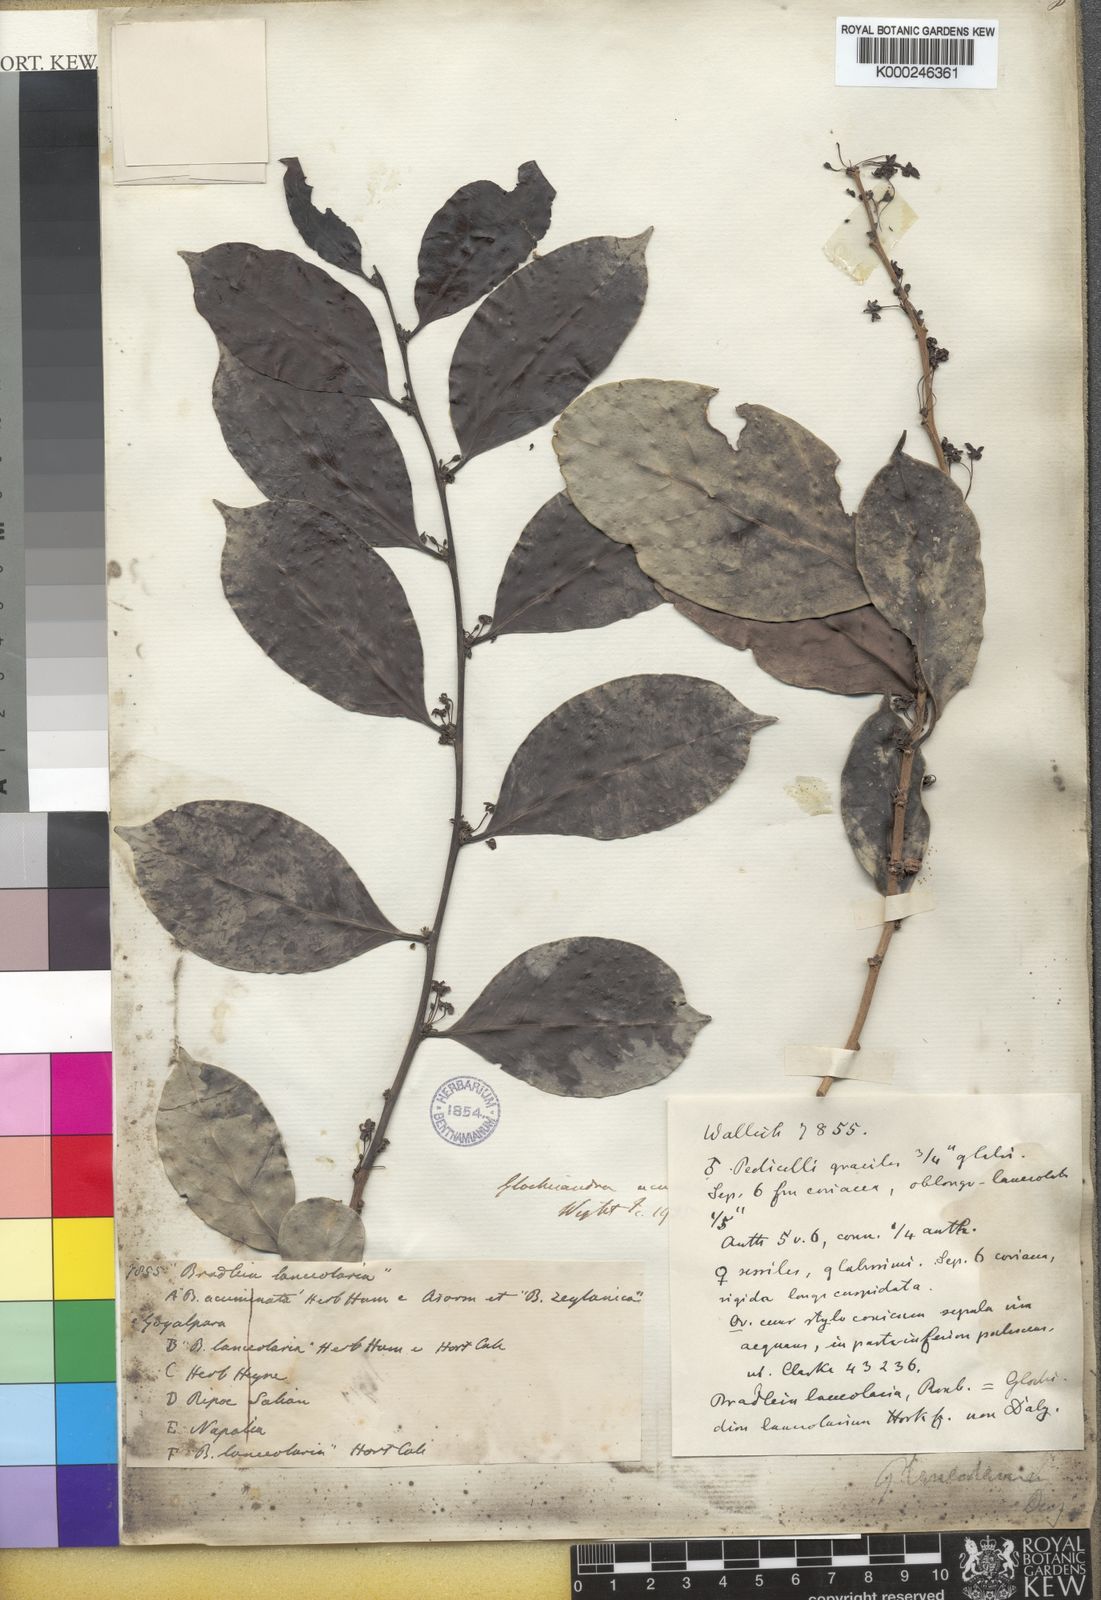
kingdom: Plantae
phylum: Tracheophyta
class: Magnoliopsida
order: Malpighiales
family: Phyllanthaceae
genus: Glochidion
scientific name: Glochidion lanceolarium
